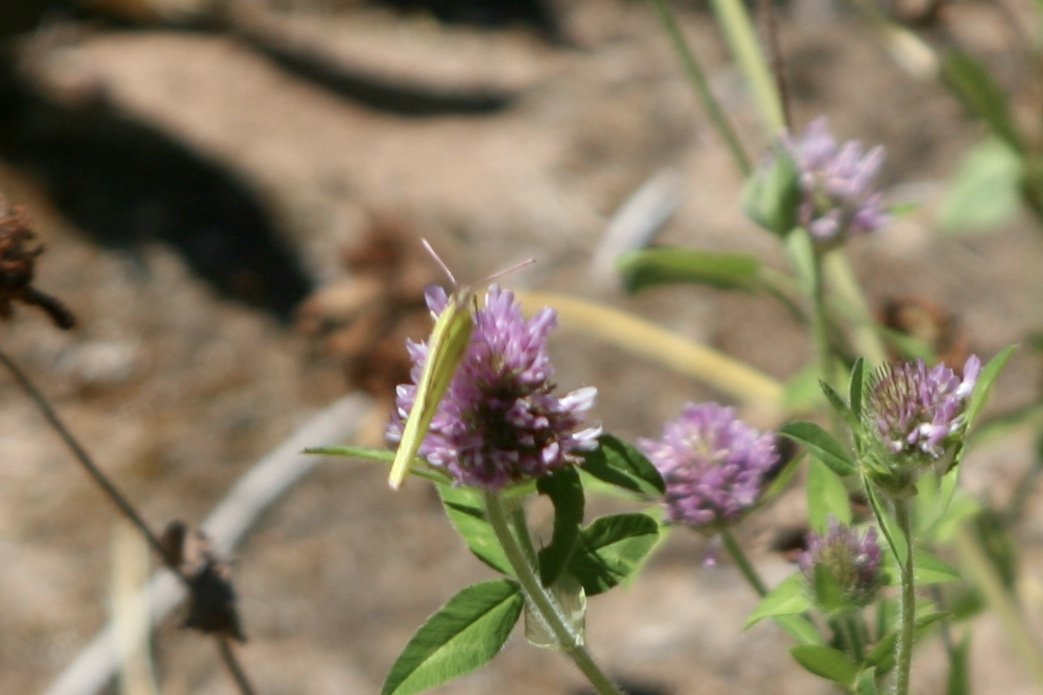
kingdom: Animalia
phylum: Arthropoda
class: Insecta
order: Lepidoptera
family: Pieridae
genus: Colias
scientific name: Colias philodice
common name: Clouded Sulphur
